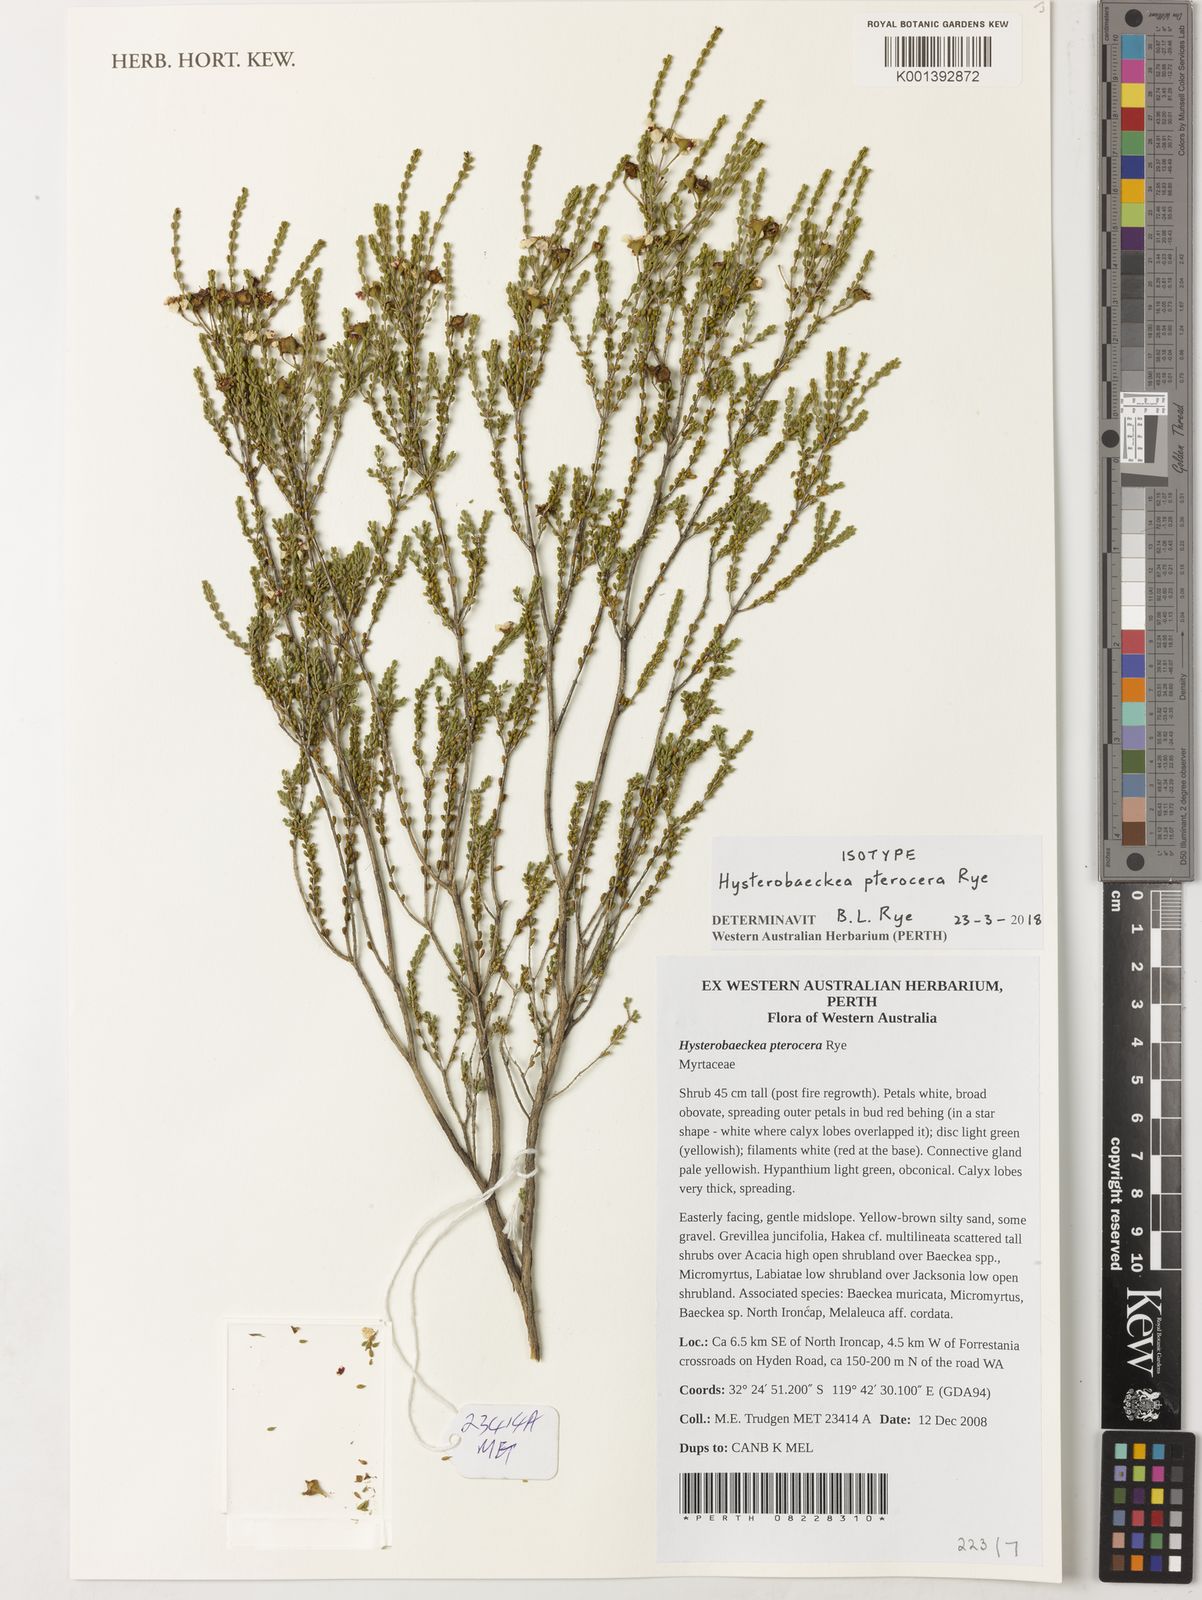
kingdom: Plantae
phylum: Tracheophyta
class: Magnoliopsida
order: Myrtales
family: Myrtaceae
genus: Hysterobaeckea
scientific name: Hysterobaeckea pterocera
